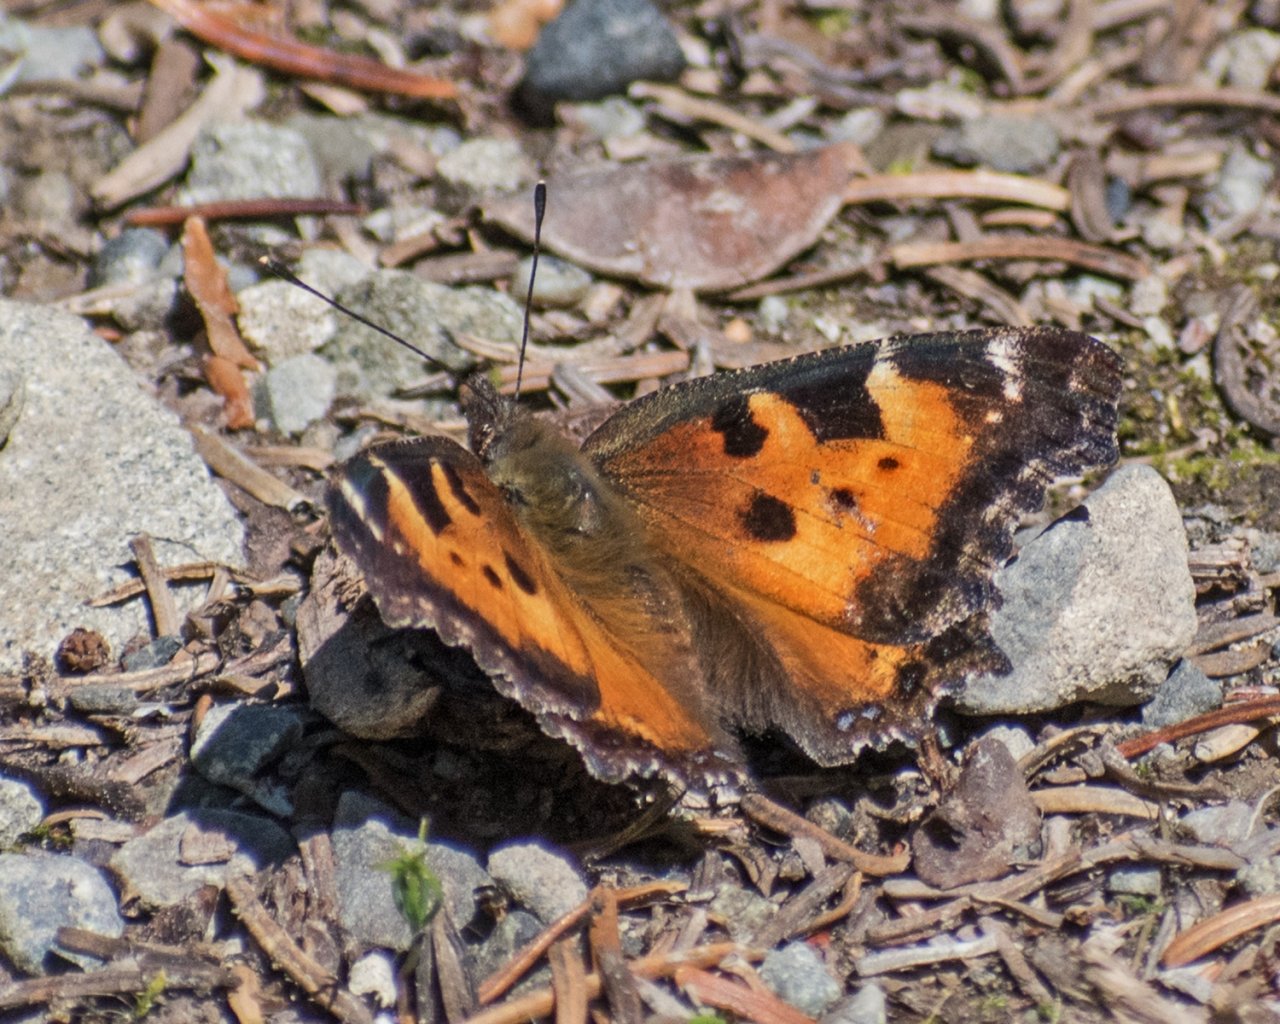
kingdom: Animalia
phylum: Arthropoda
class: Insecta
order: Lepidoptera
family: Nymphalidae
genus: Nymphalis
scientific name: Nymphalis californica
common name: California Tortoiseshell
